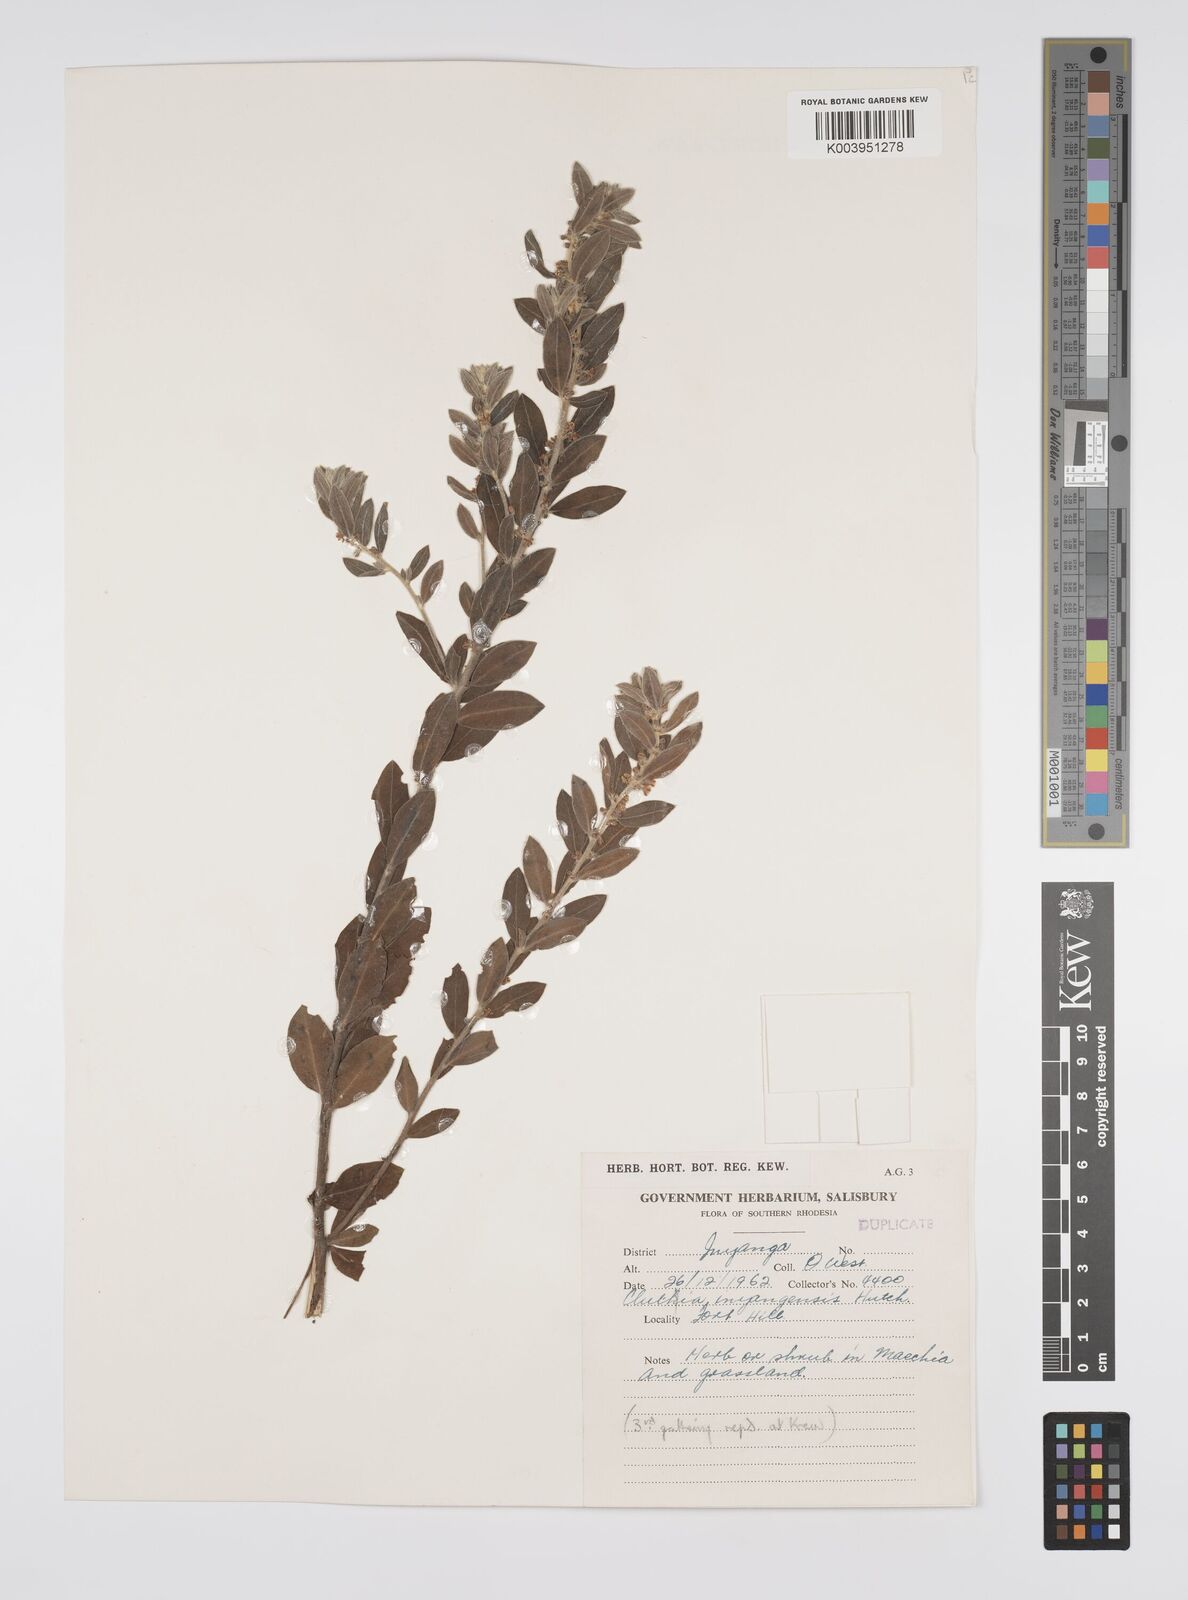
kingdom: Plantae
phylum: Tracheophyta
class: Magnoliopsida
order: Malpighiales
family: Peraceae
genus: Clutia
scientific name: Clutia
